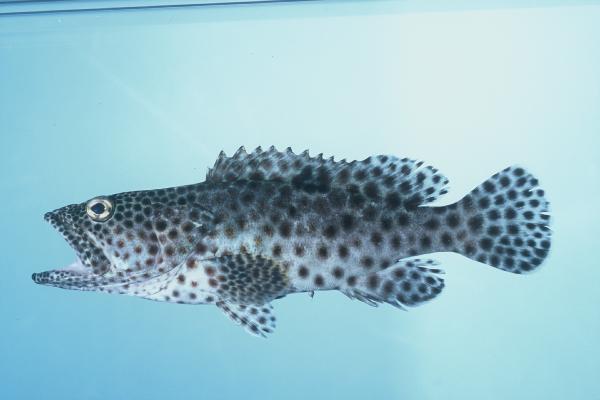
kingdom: Animalia
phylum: Chordata
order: Perciformes
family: Serranidae
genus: Epinephelus
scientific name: Epinephelus tauvina
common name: Greasy grouper
